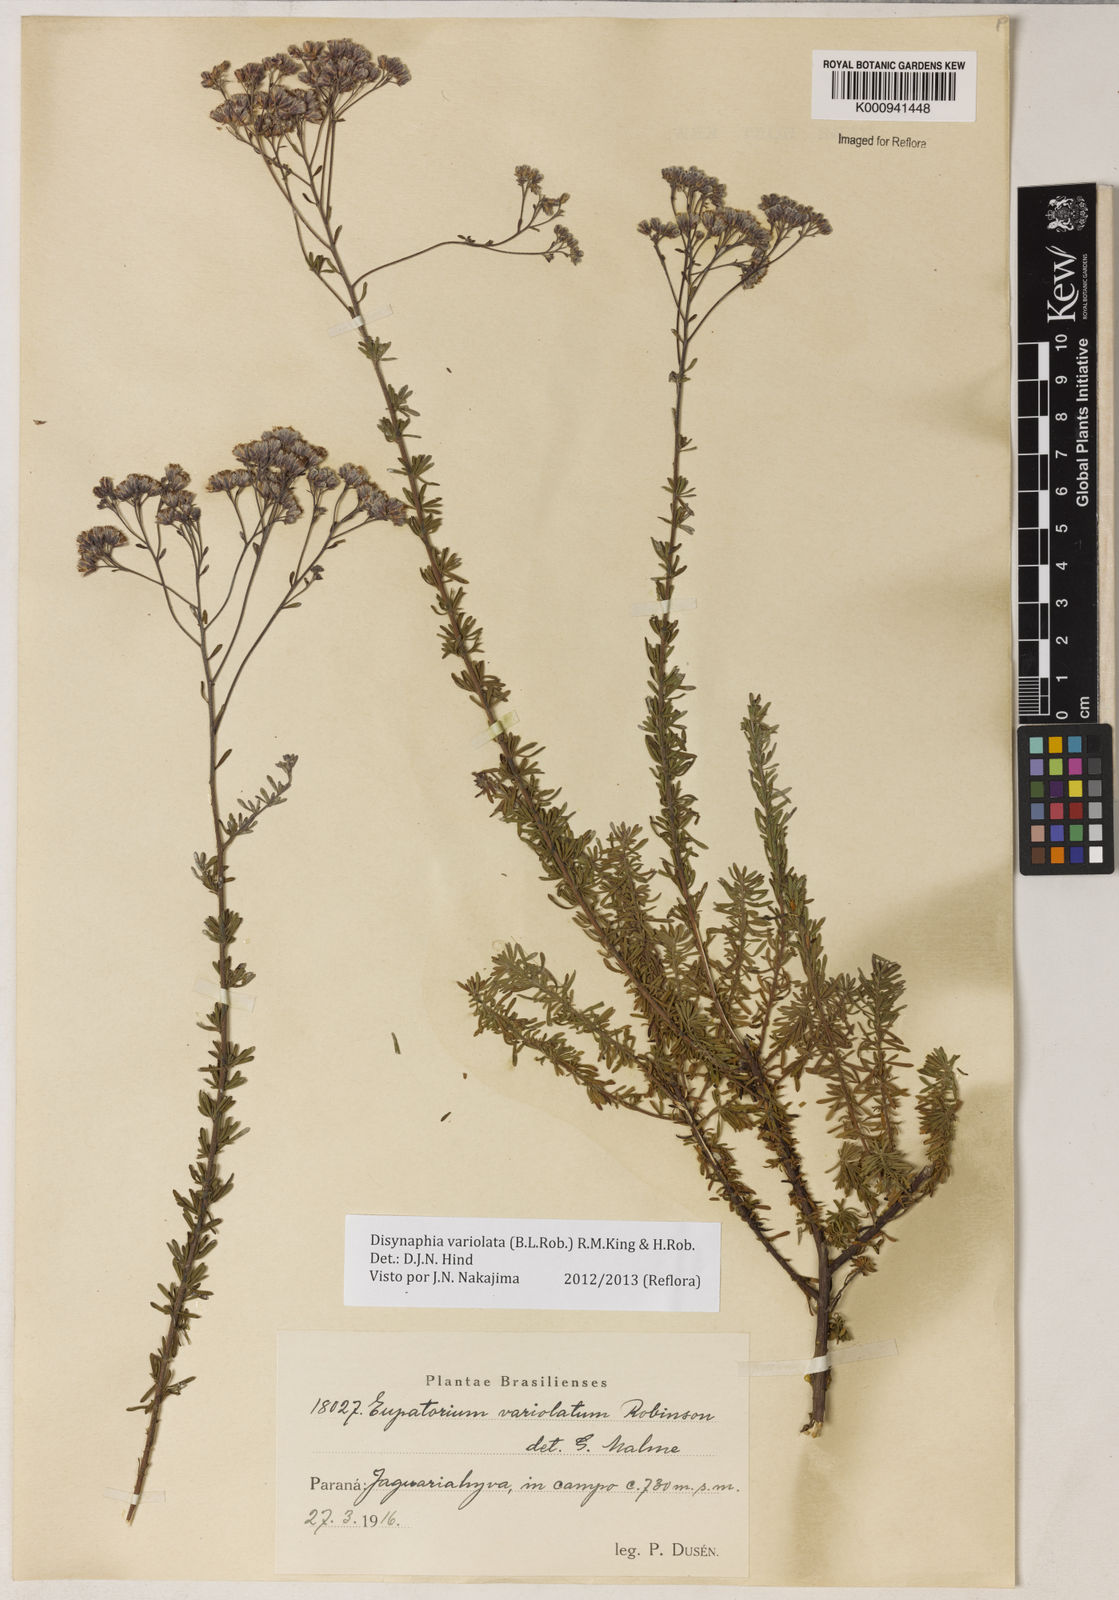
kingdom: Plantae
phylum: Tracheophyta
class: Magnoliopsida
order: Asterales
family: Asteraceae
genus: Disynaphia
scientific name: Disynaphia variolata
